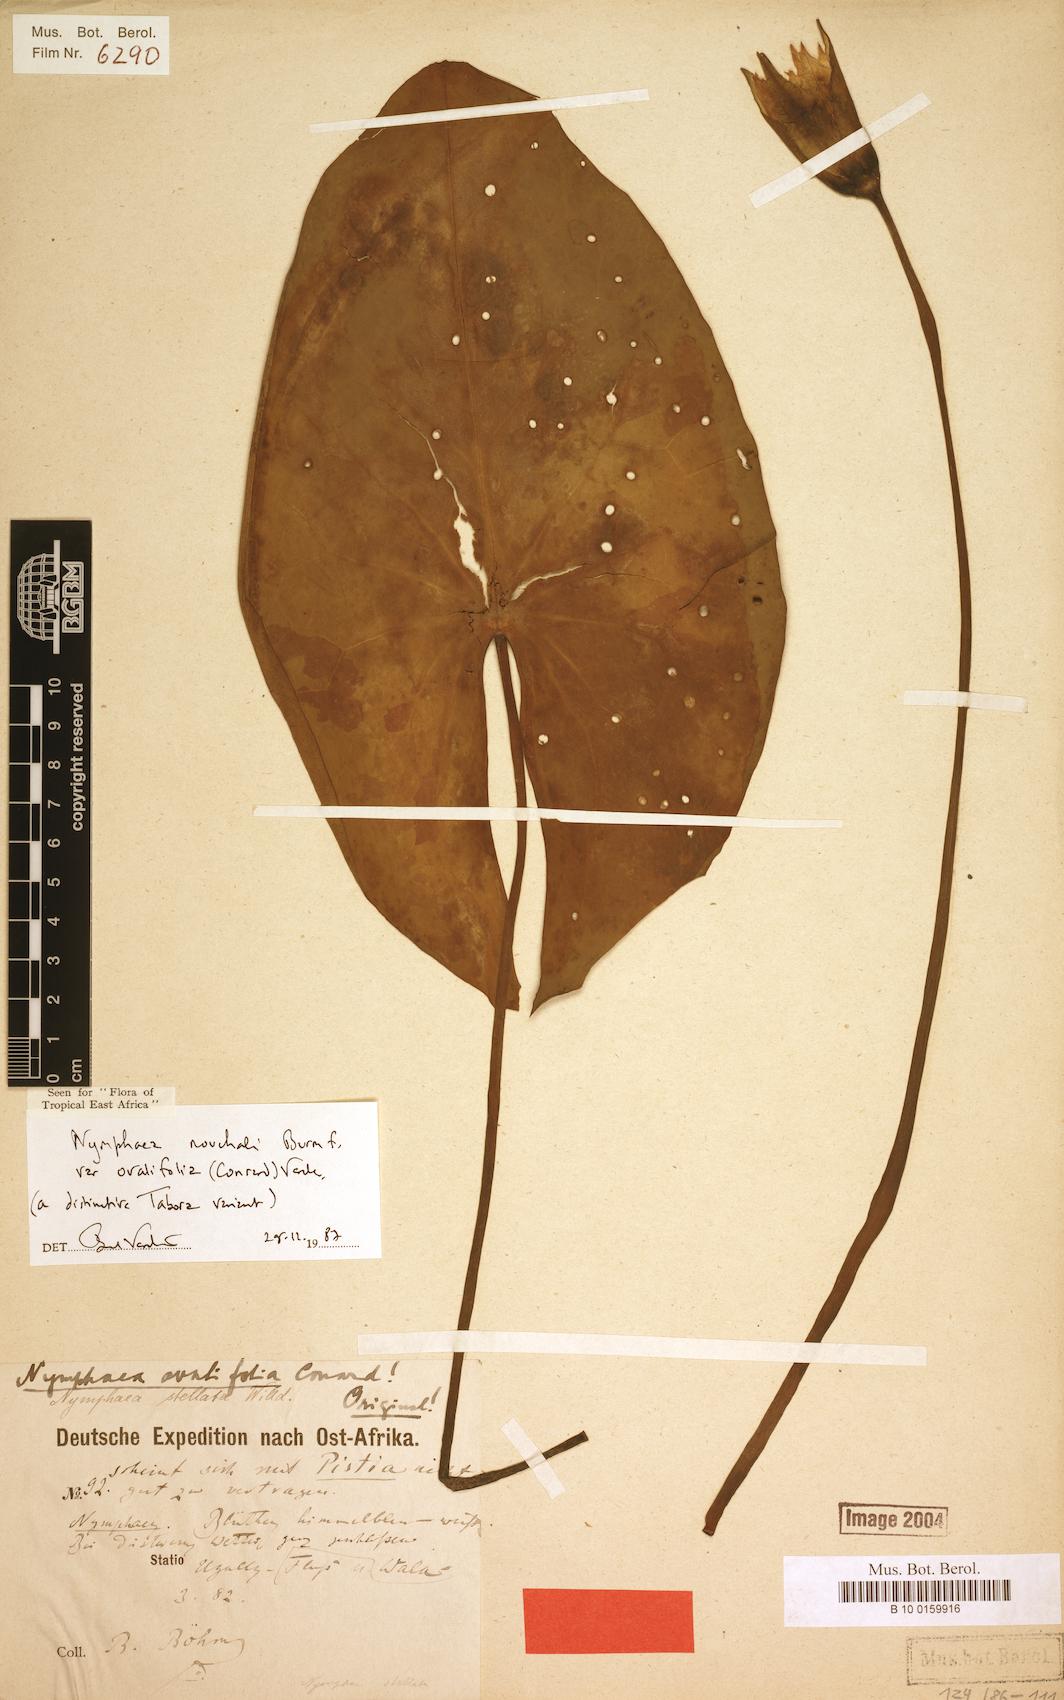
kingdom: Plantae
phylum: Tracheophyta
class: Magnoliopsida
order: Nymphaeales
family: Nymphaeaceae
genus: Nymphaea
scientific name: Nymphaea nouchali
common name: Blue lotus
